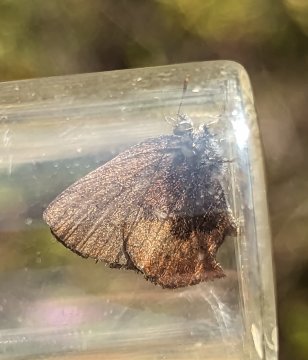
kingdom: Animalia
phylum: Arthropoda
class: Insecta
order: Lepidoptera
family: Lycaenidae
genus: Incisalia
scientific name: Incisalia irioides
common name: Brown Elfin
